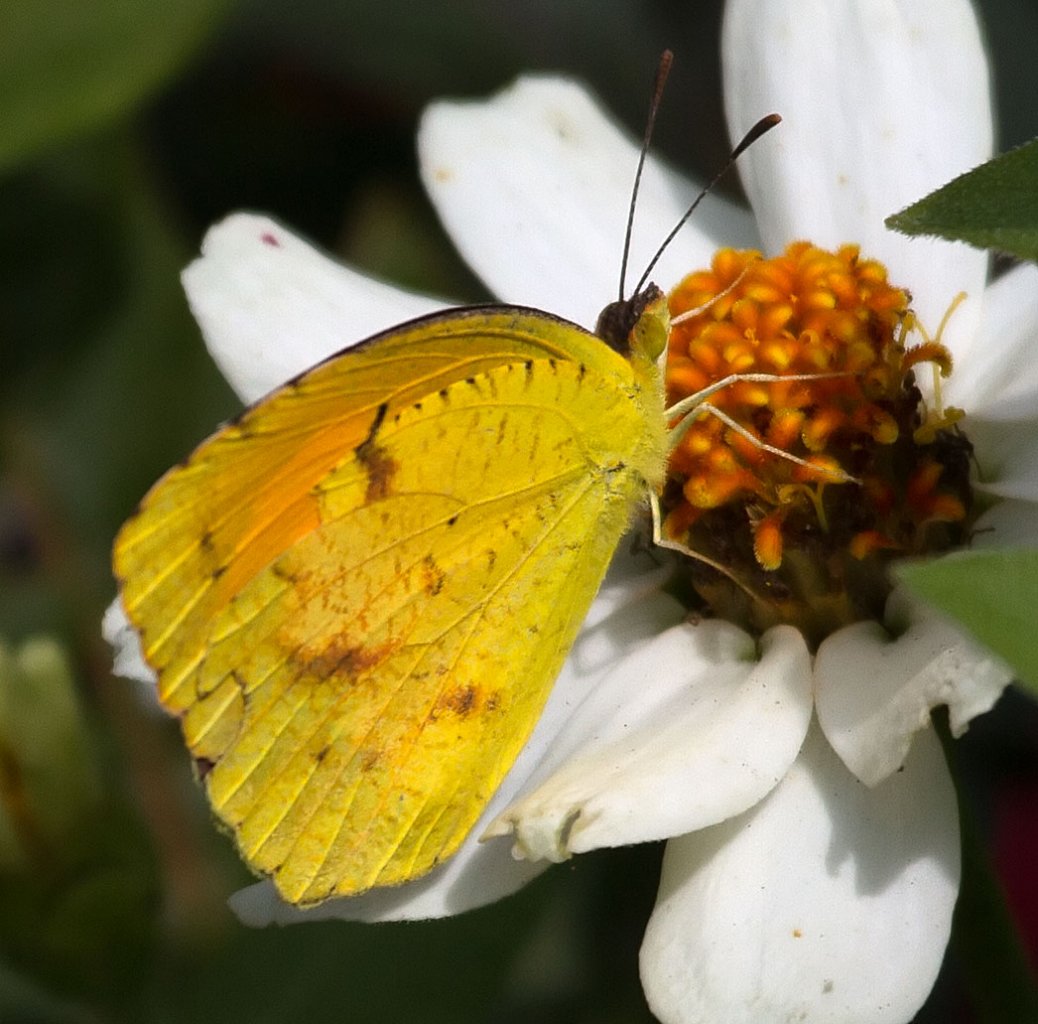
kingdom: Animalia
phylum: Arthropoda
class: Insecta
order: Lepidoptera
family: Pieridae
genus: Abaeis
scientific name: Abaeis nicippe
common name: Sleepy Orange
